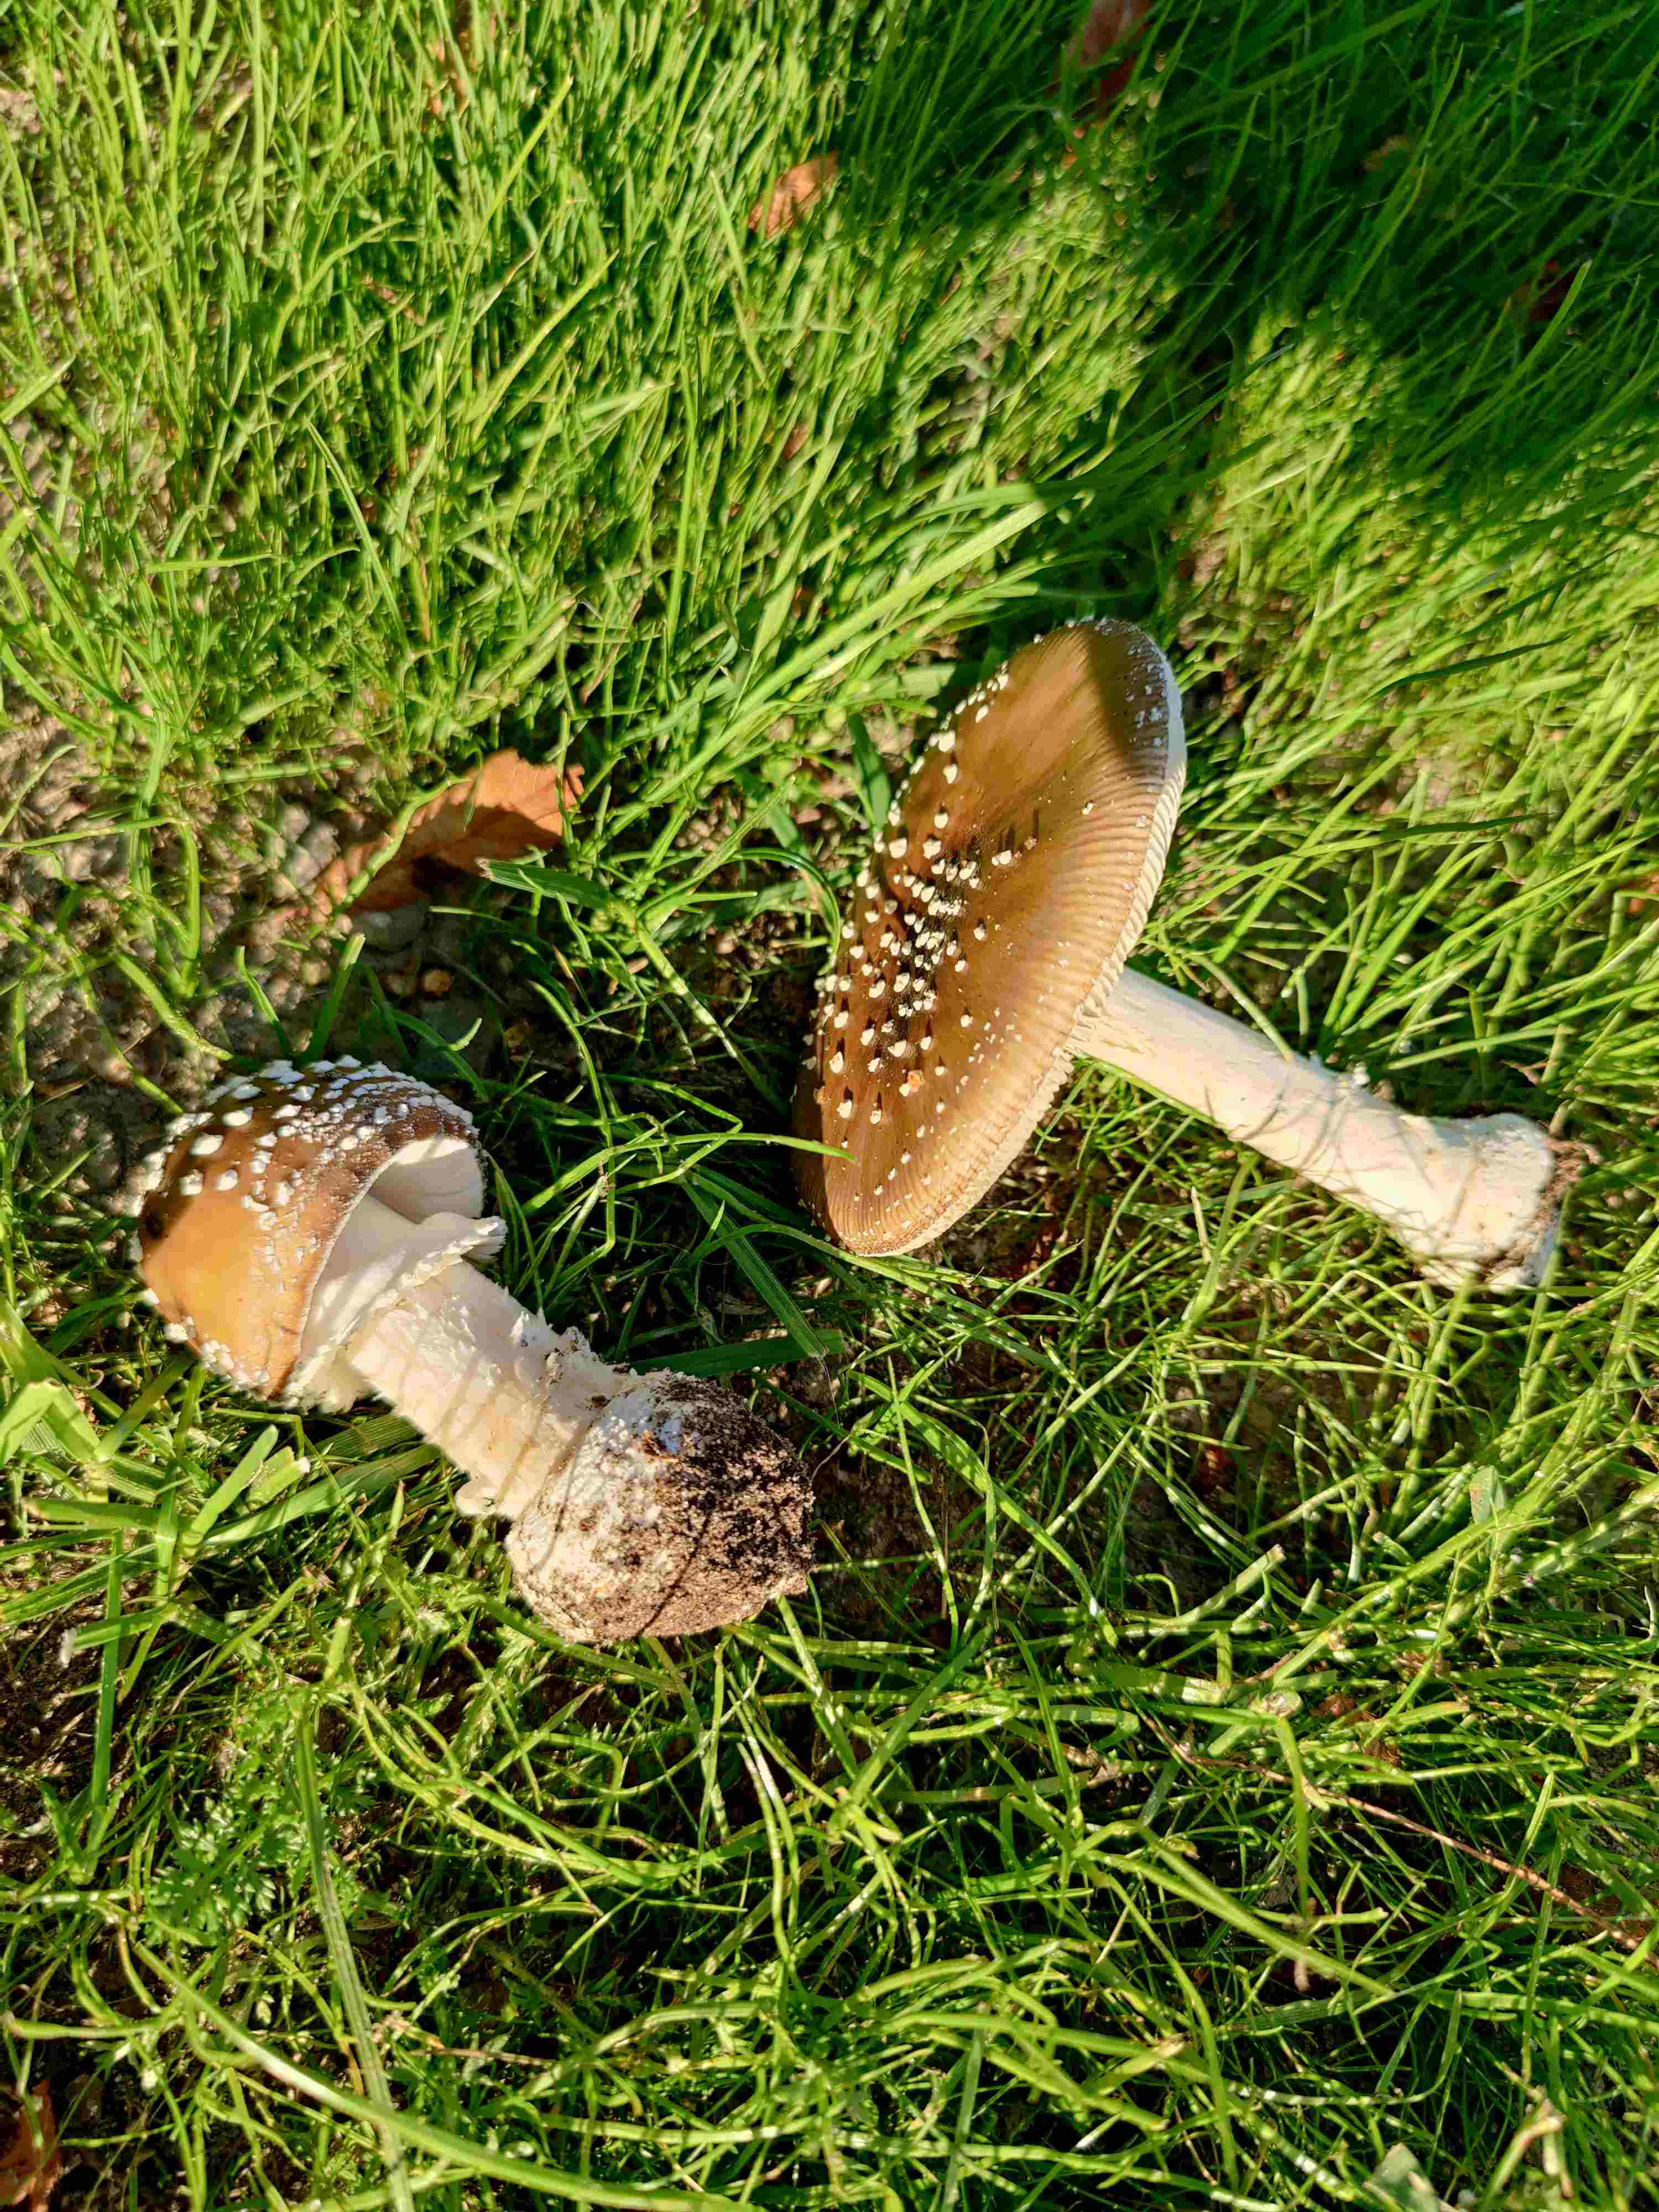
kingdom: Fungi
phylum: Basidiomycota
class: Agaricomycetes
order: Agaricales
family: Amanitaceae
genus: Amanita
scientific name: Amanita pantherina
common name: panter-fluesvamp
